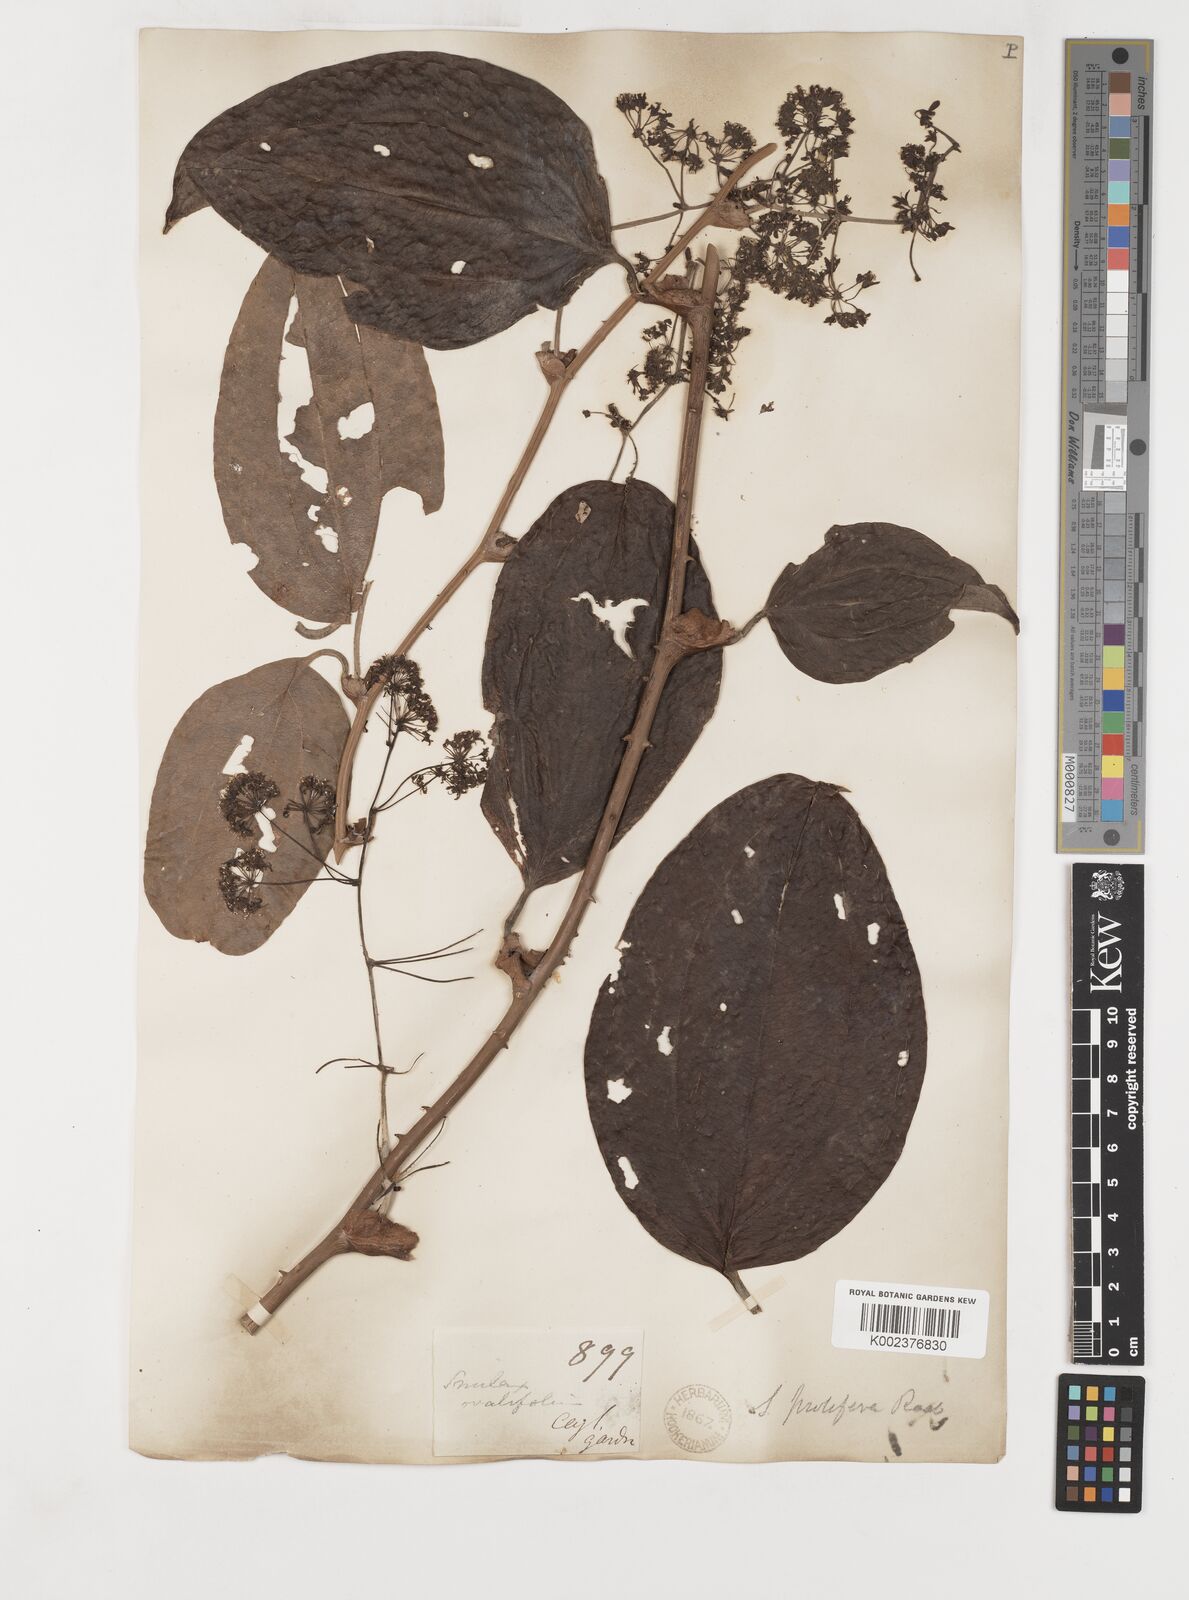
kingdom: Plantae
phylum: Tracheophyta
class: Liliopsida
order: Liliales
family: Smilacaceae
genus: Smilax
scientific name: Smilax prolifera
